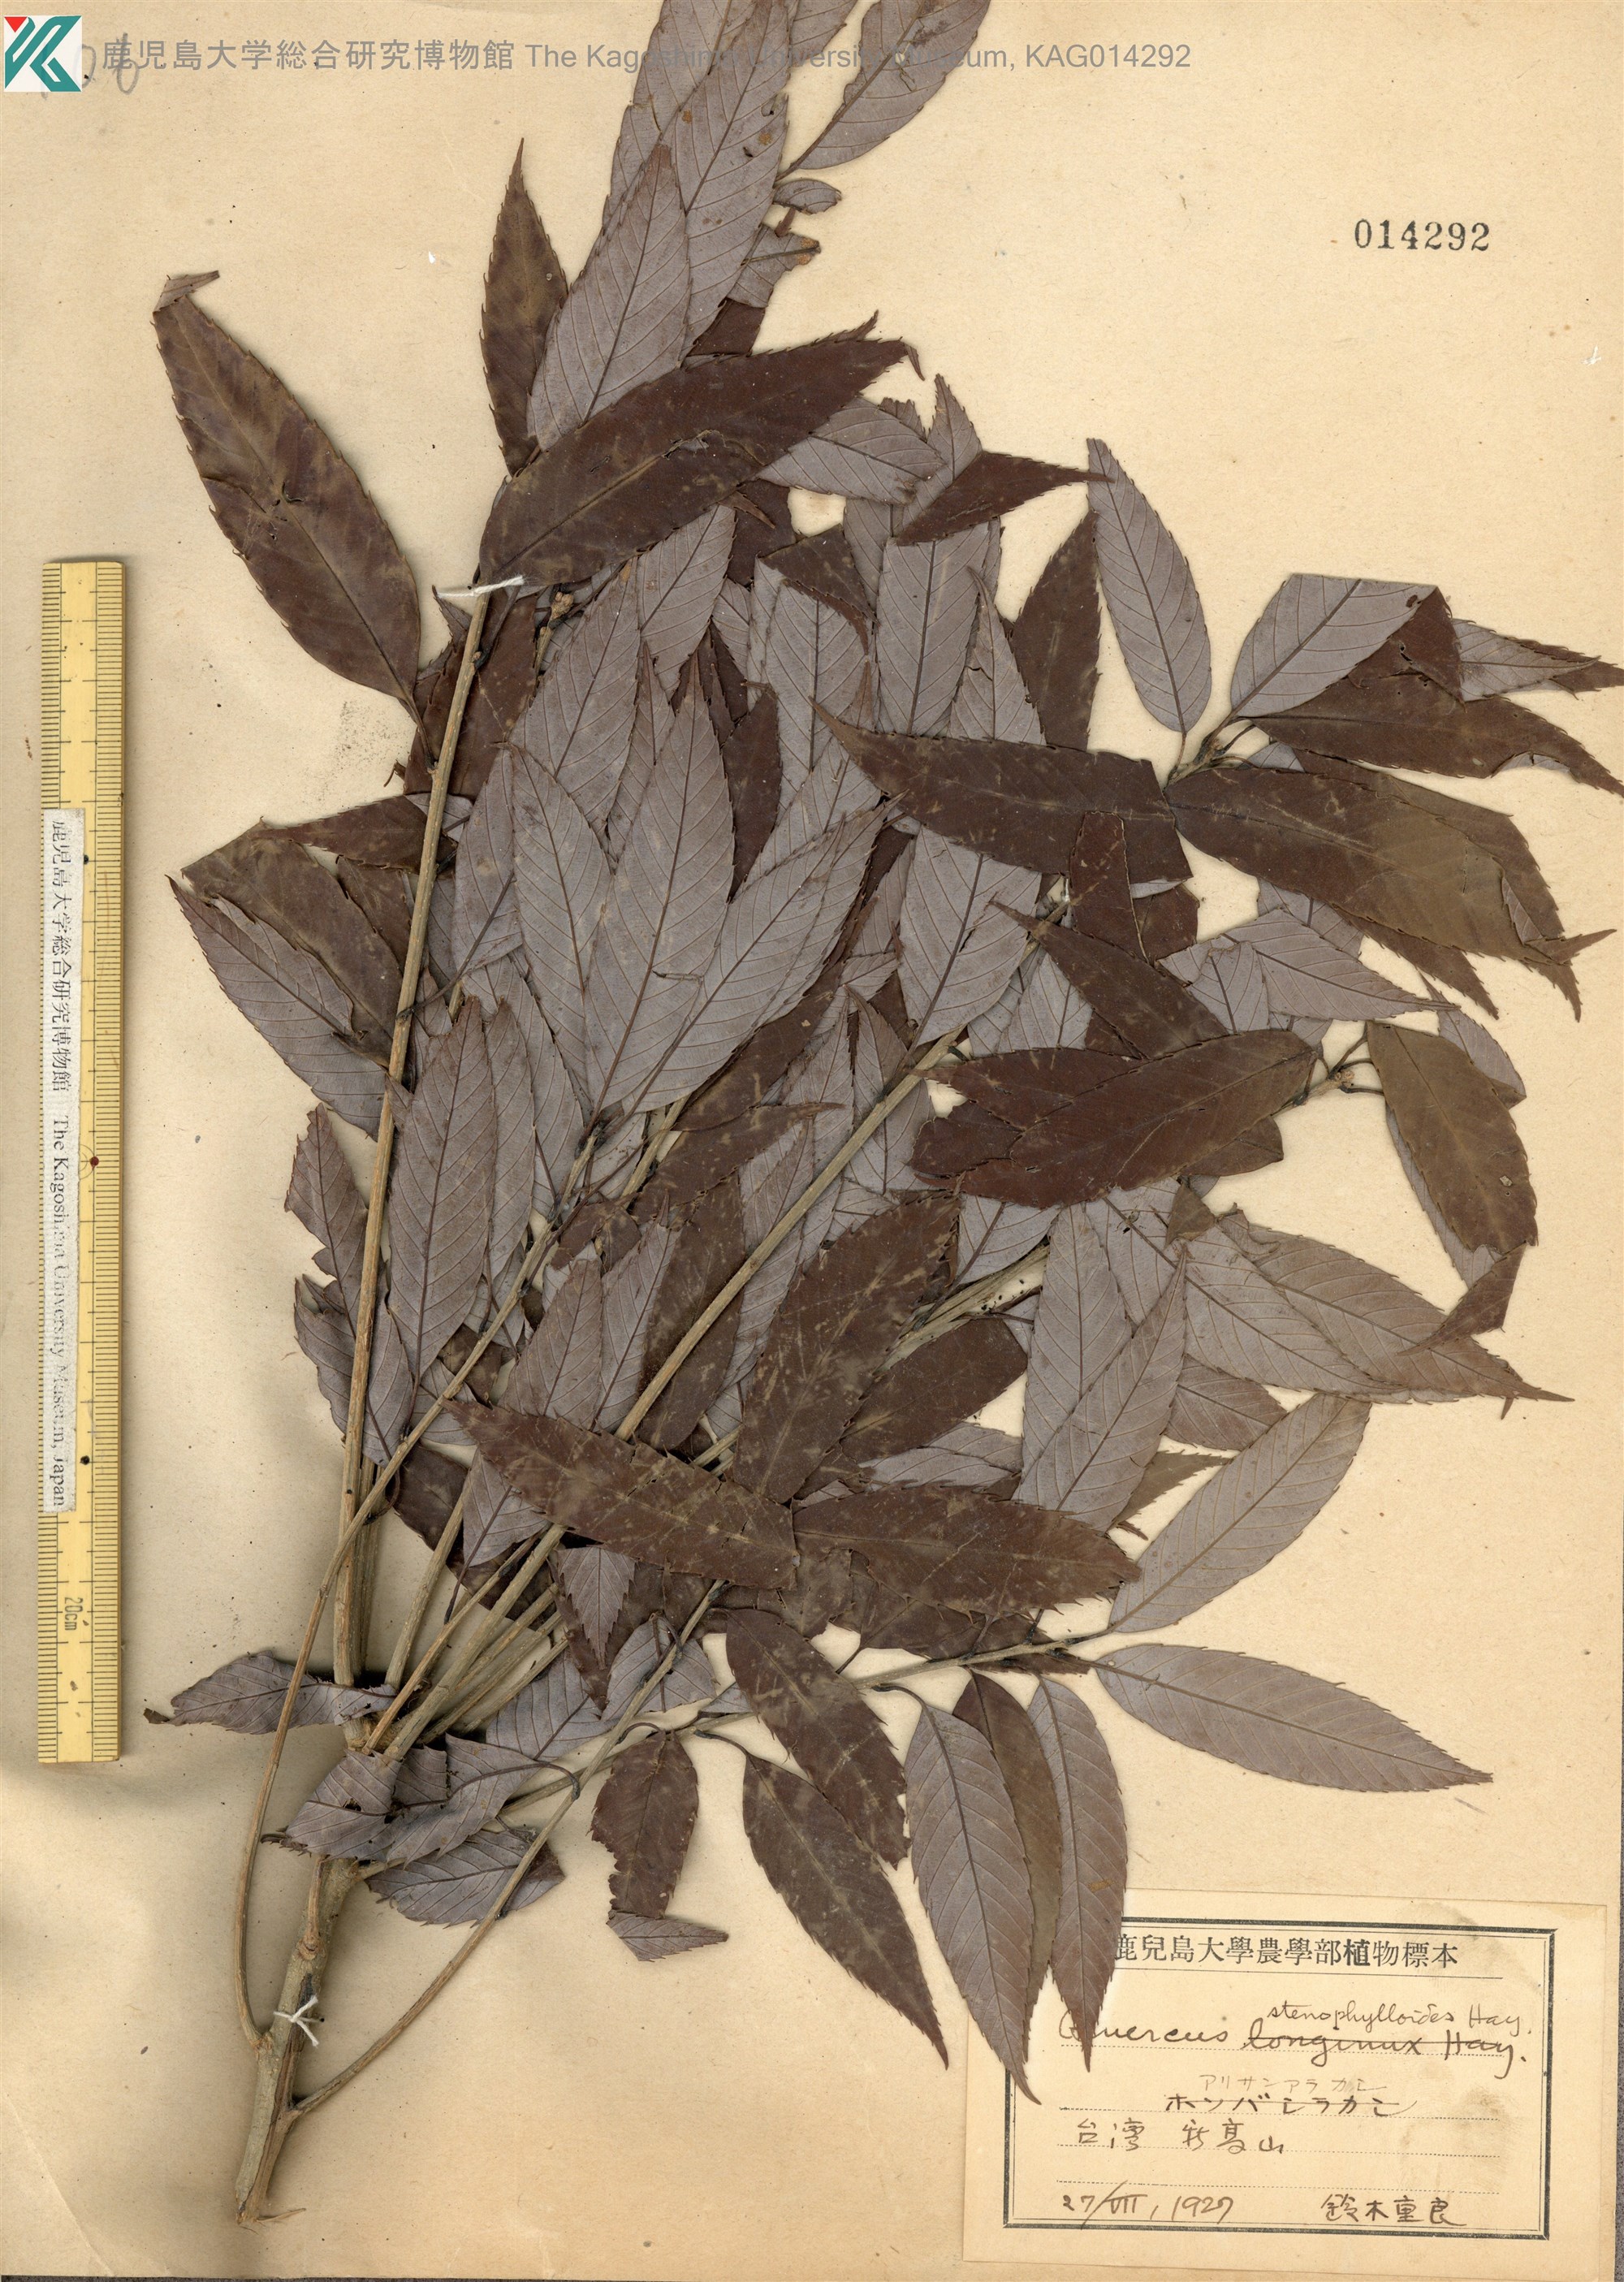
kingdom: Plantae
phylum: Tracheophyta
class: Magnoliopsida
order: Fagales
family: Fagaceae
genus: Quercus
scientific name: Quercus stenophylloides
